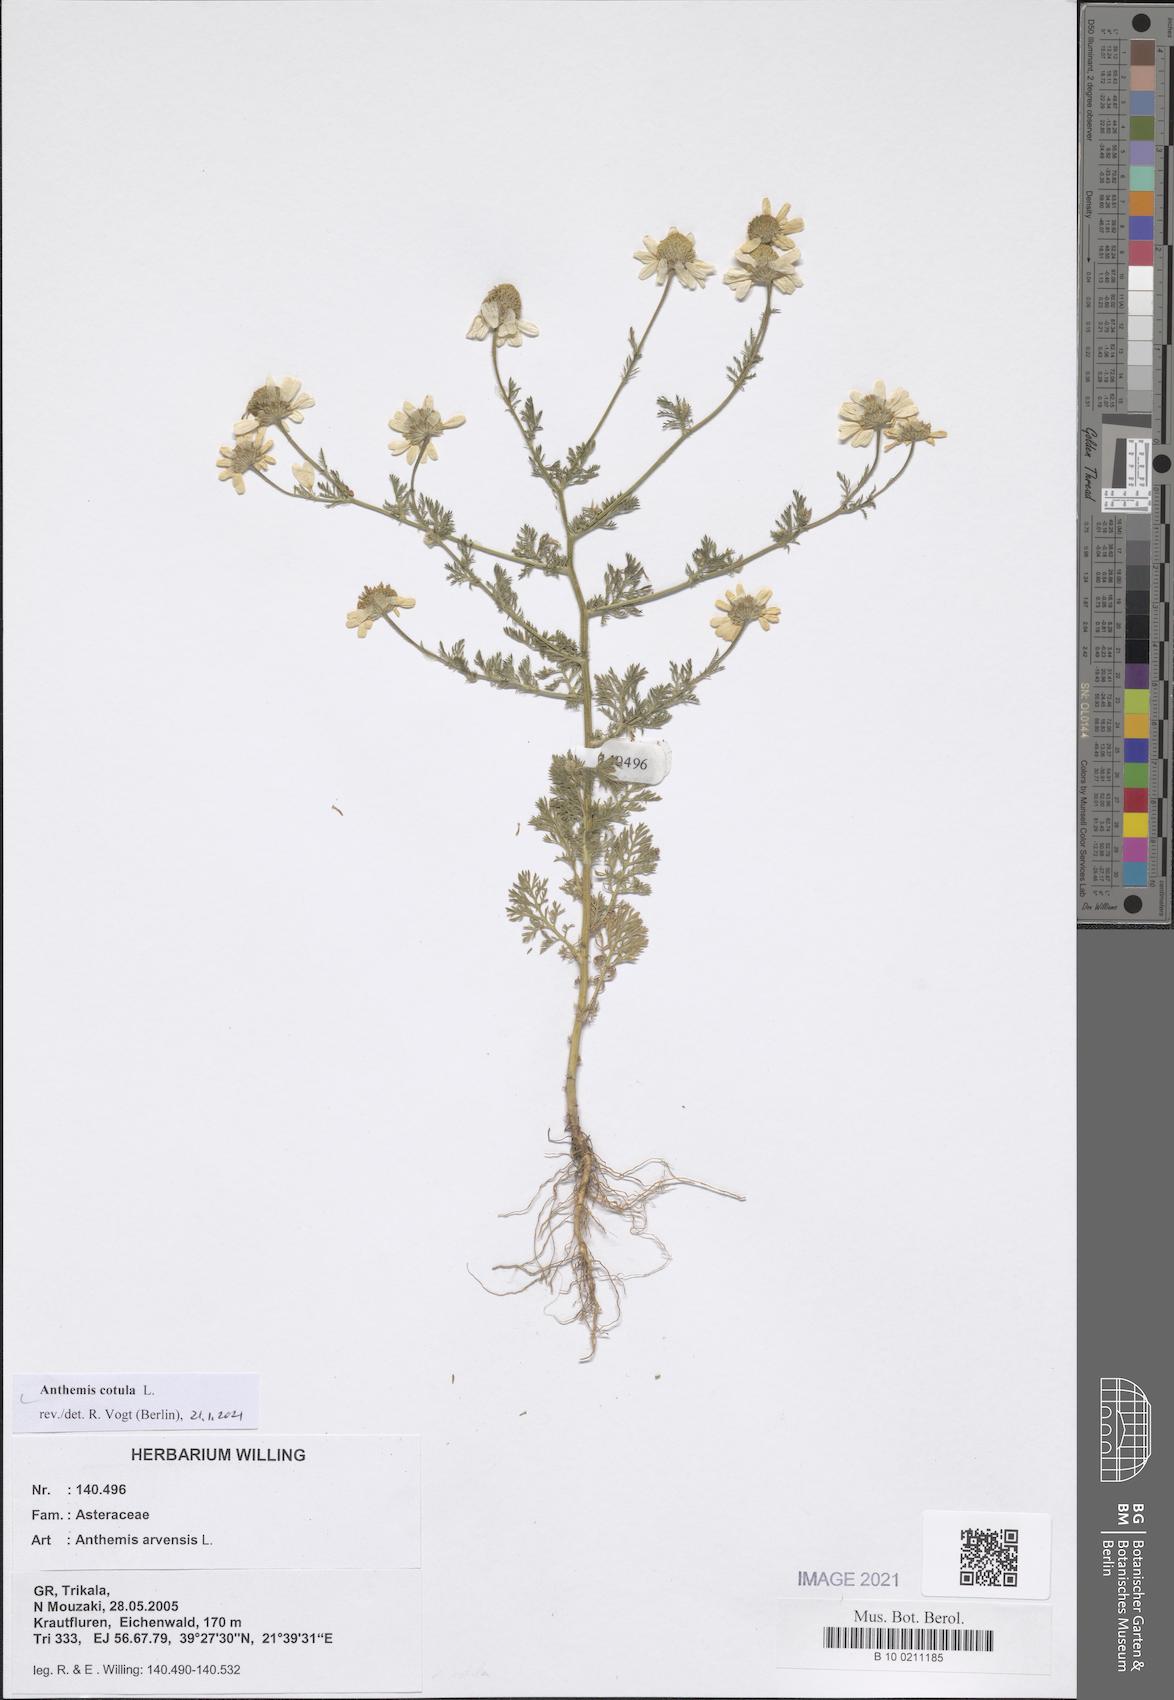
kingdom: Plantae
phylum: Tracheophyta
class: Magnoliopsida
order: Asterales
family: Asteraceae
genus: Anthemis
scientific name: Anthemis cotula
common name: Stinking chamomile
